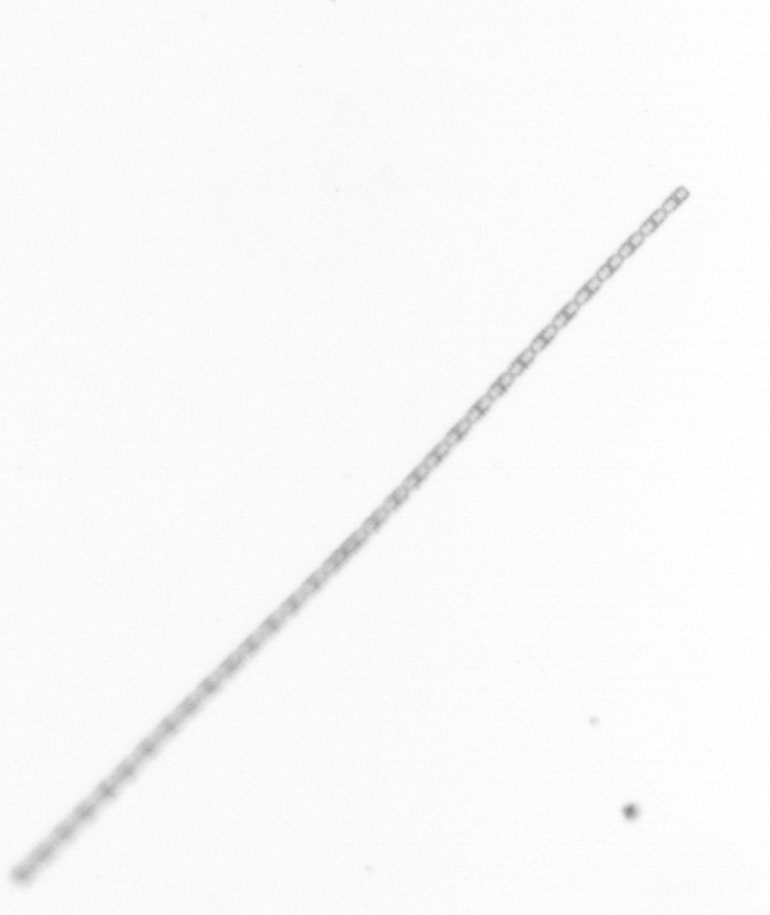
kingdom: Chromista
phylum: Ochrophyta
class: Bacillariophyceae
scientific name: Bacillariophyceae
